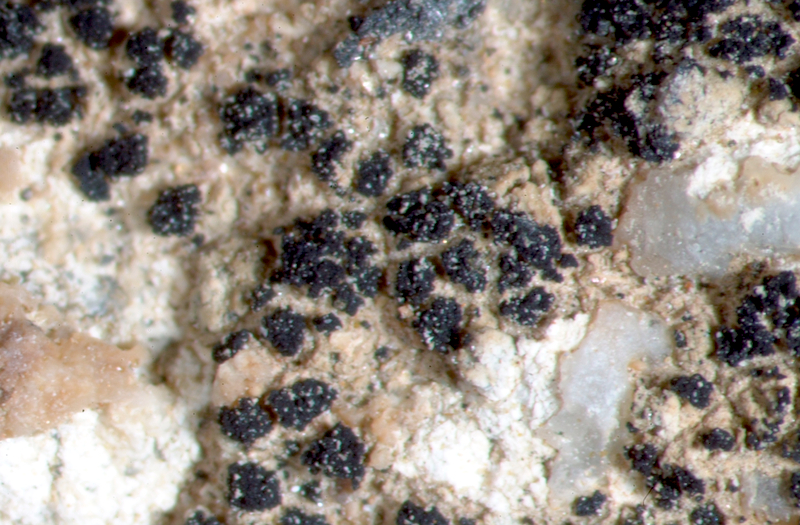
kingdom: Fungi
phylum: Ascomycota
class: Lichinomycetes
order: Lichinales
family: Lichinaceae
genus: Phloeopeccania
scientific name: Phloeopeccania pulvinulina
